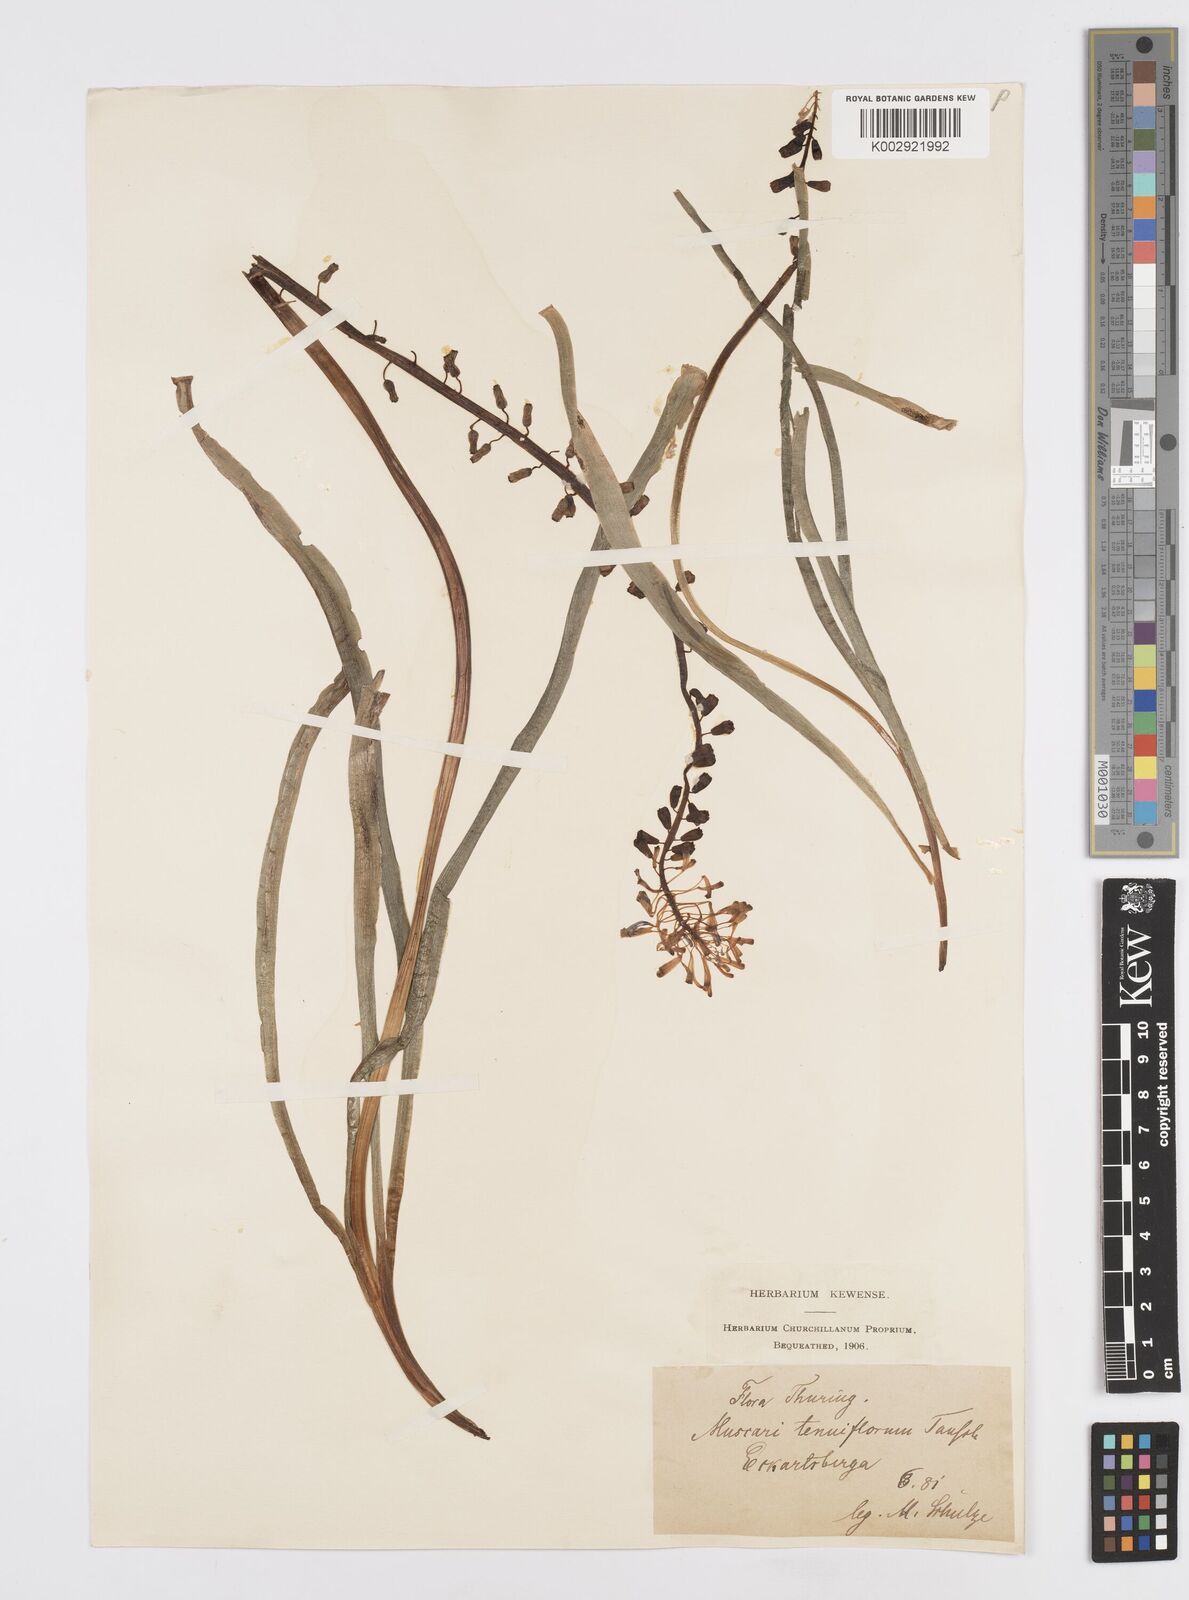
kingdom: Plantae
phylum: Tracheophyta
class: Liliopsida
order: Asparagales
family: Asparagaceae
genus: Muscari
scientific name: Muscari tenuiflorum
